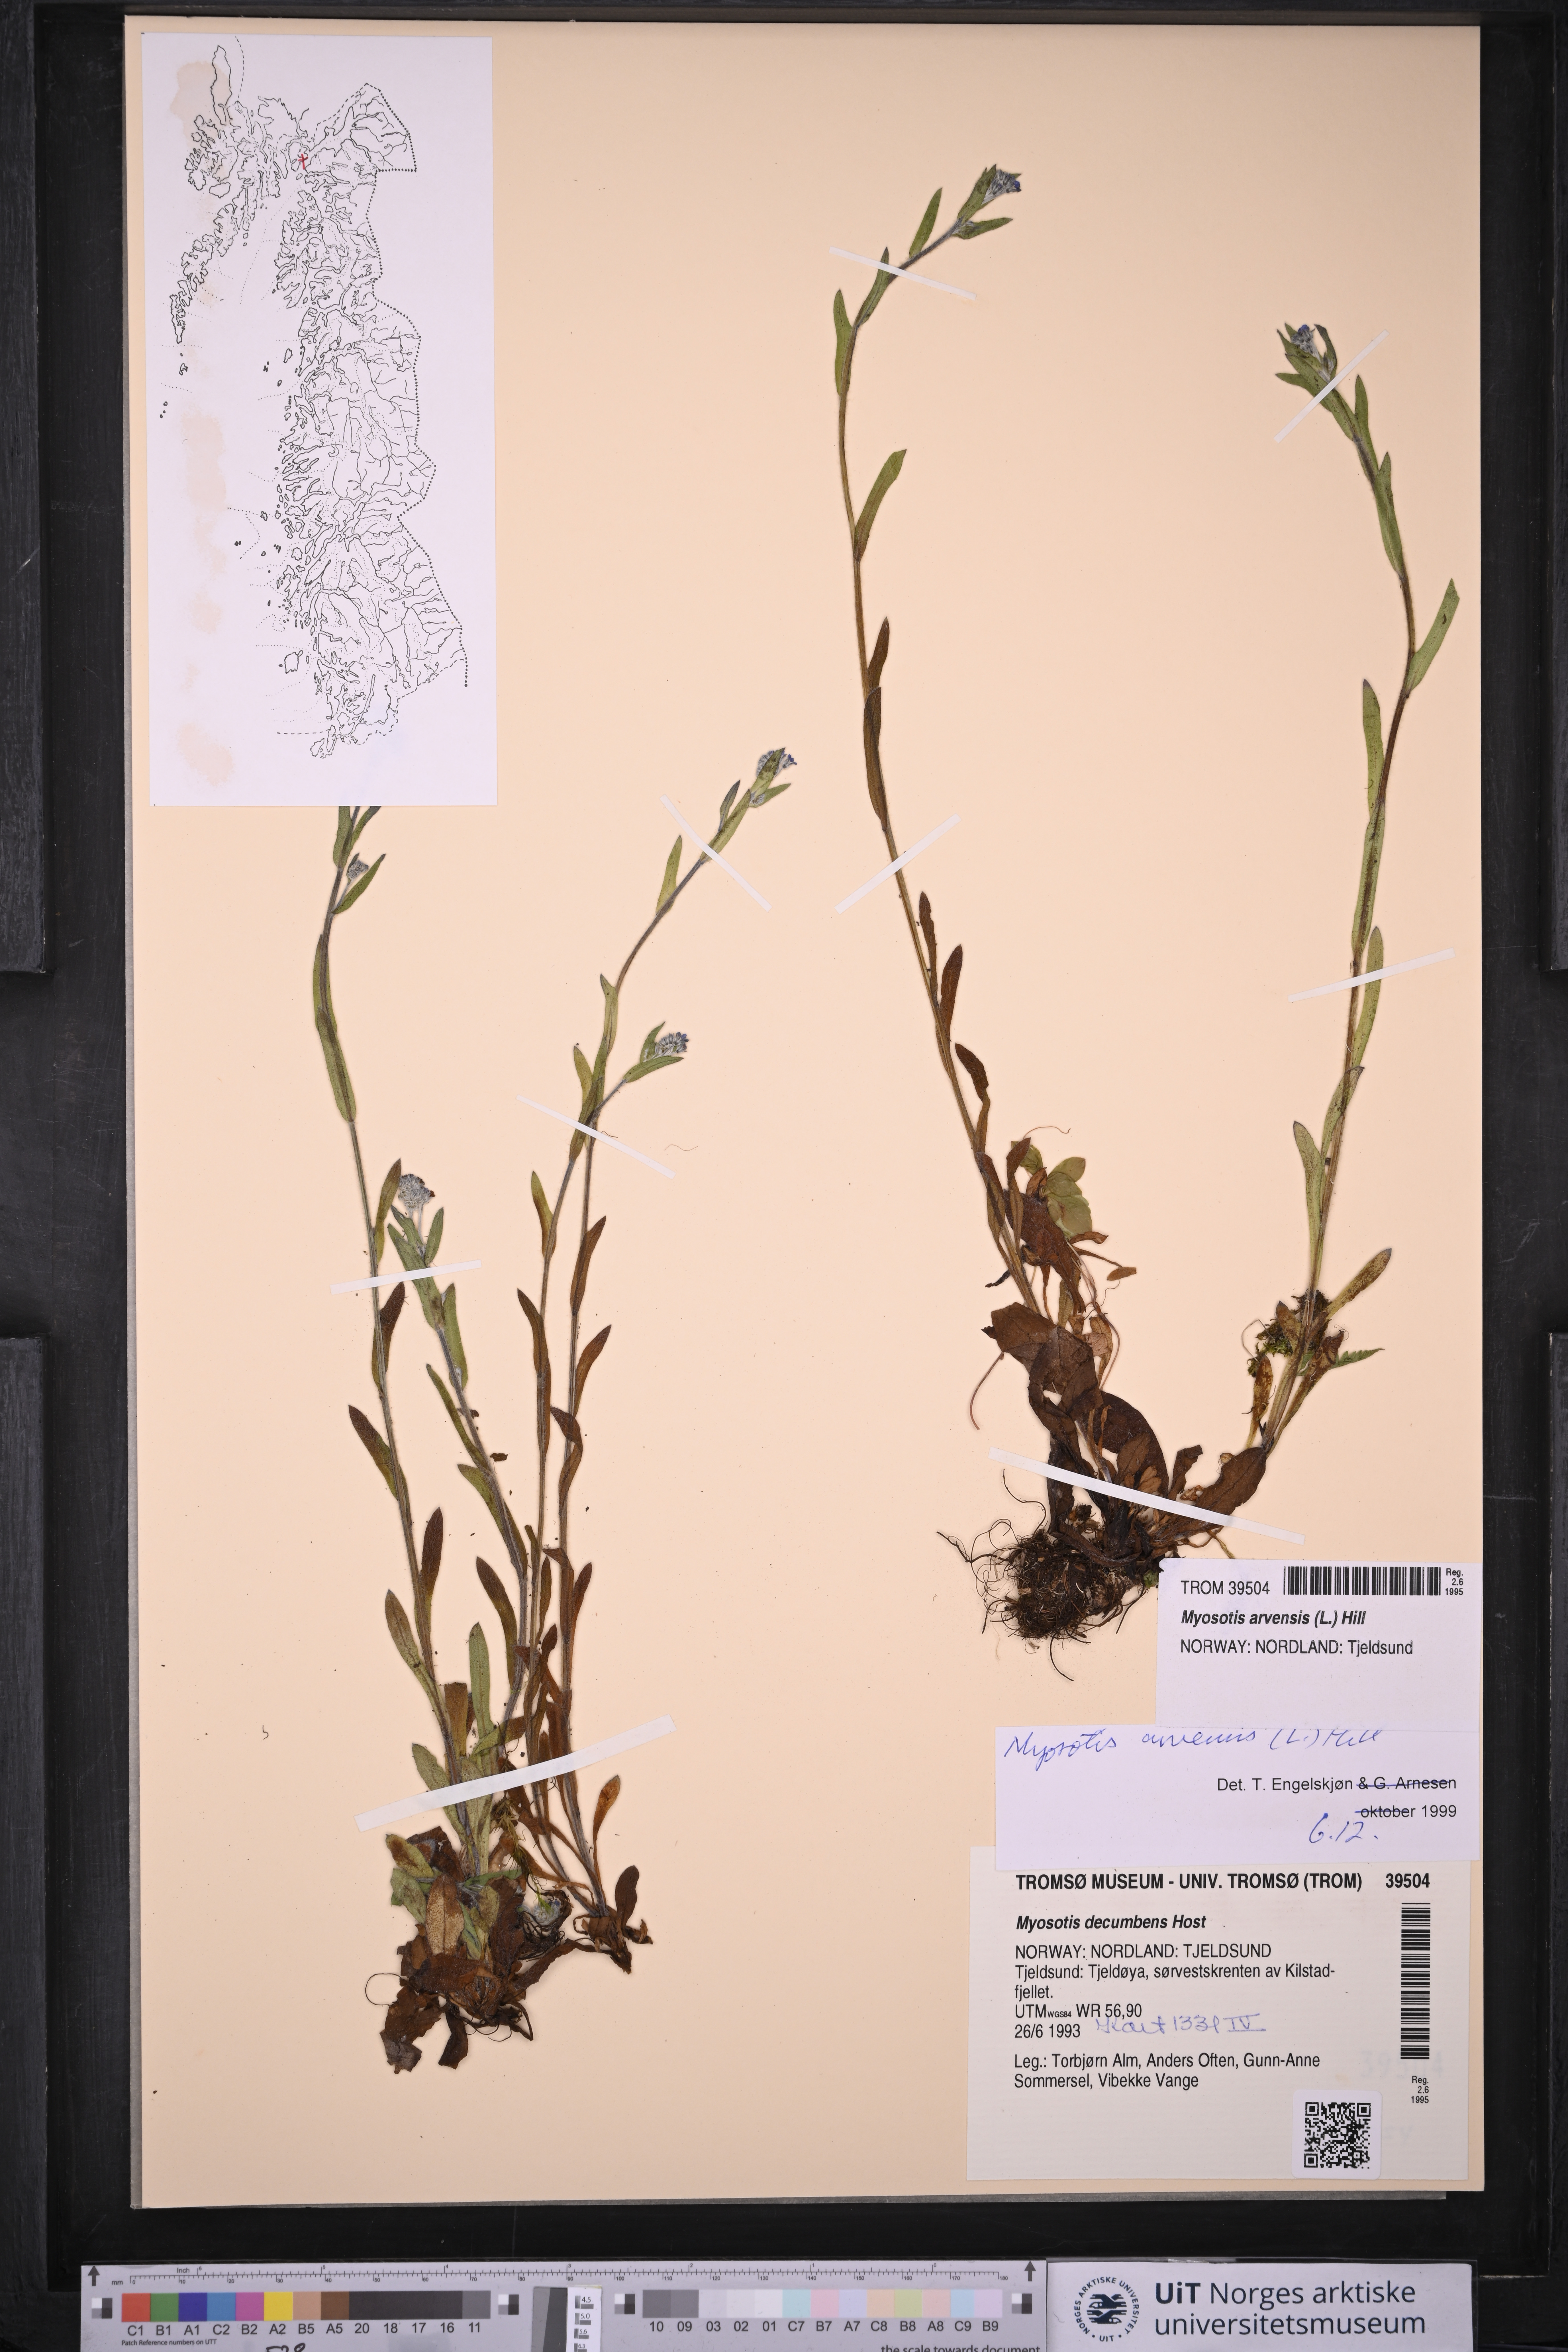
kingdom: Plantae
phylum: Tracheophyta
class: Magnoliopsida
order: Boraginales
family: Boraginaceae
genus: Myosotis
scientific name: Myosotis arvensis
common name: Field forget-me-not
